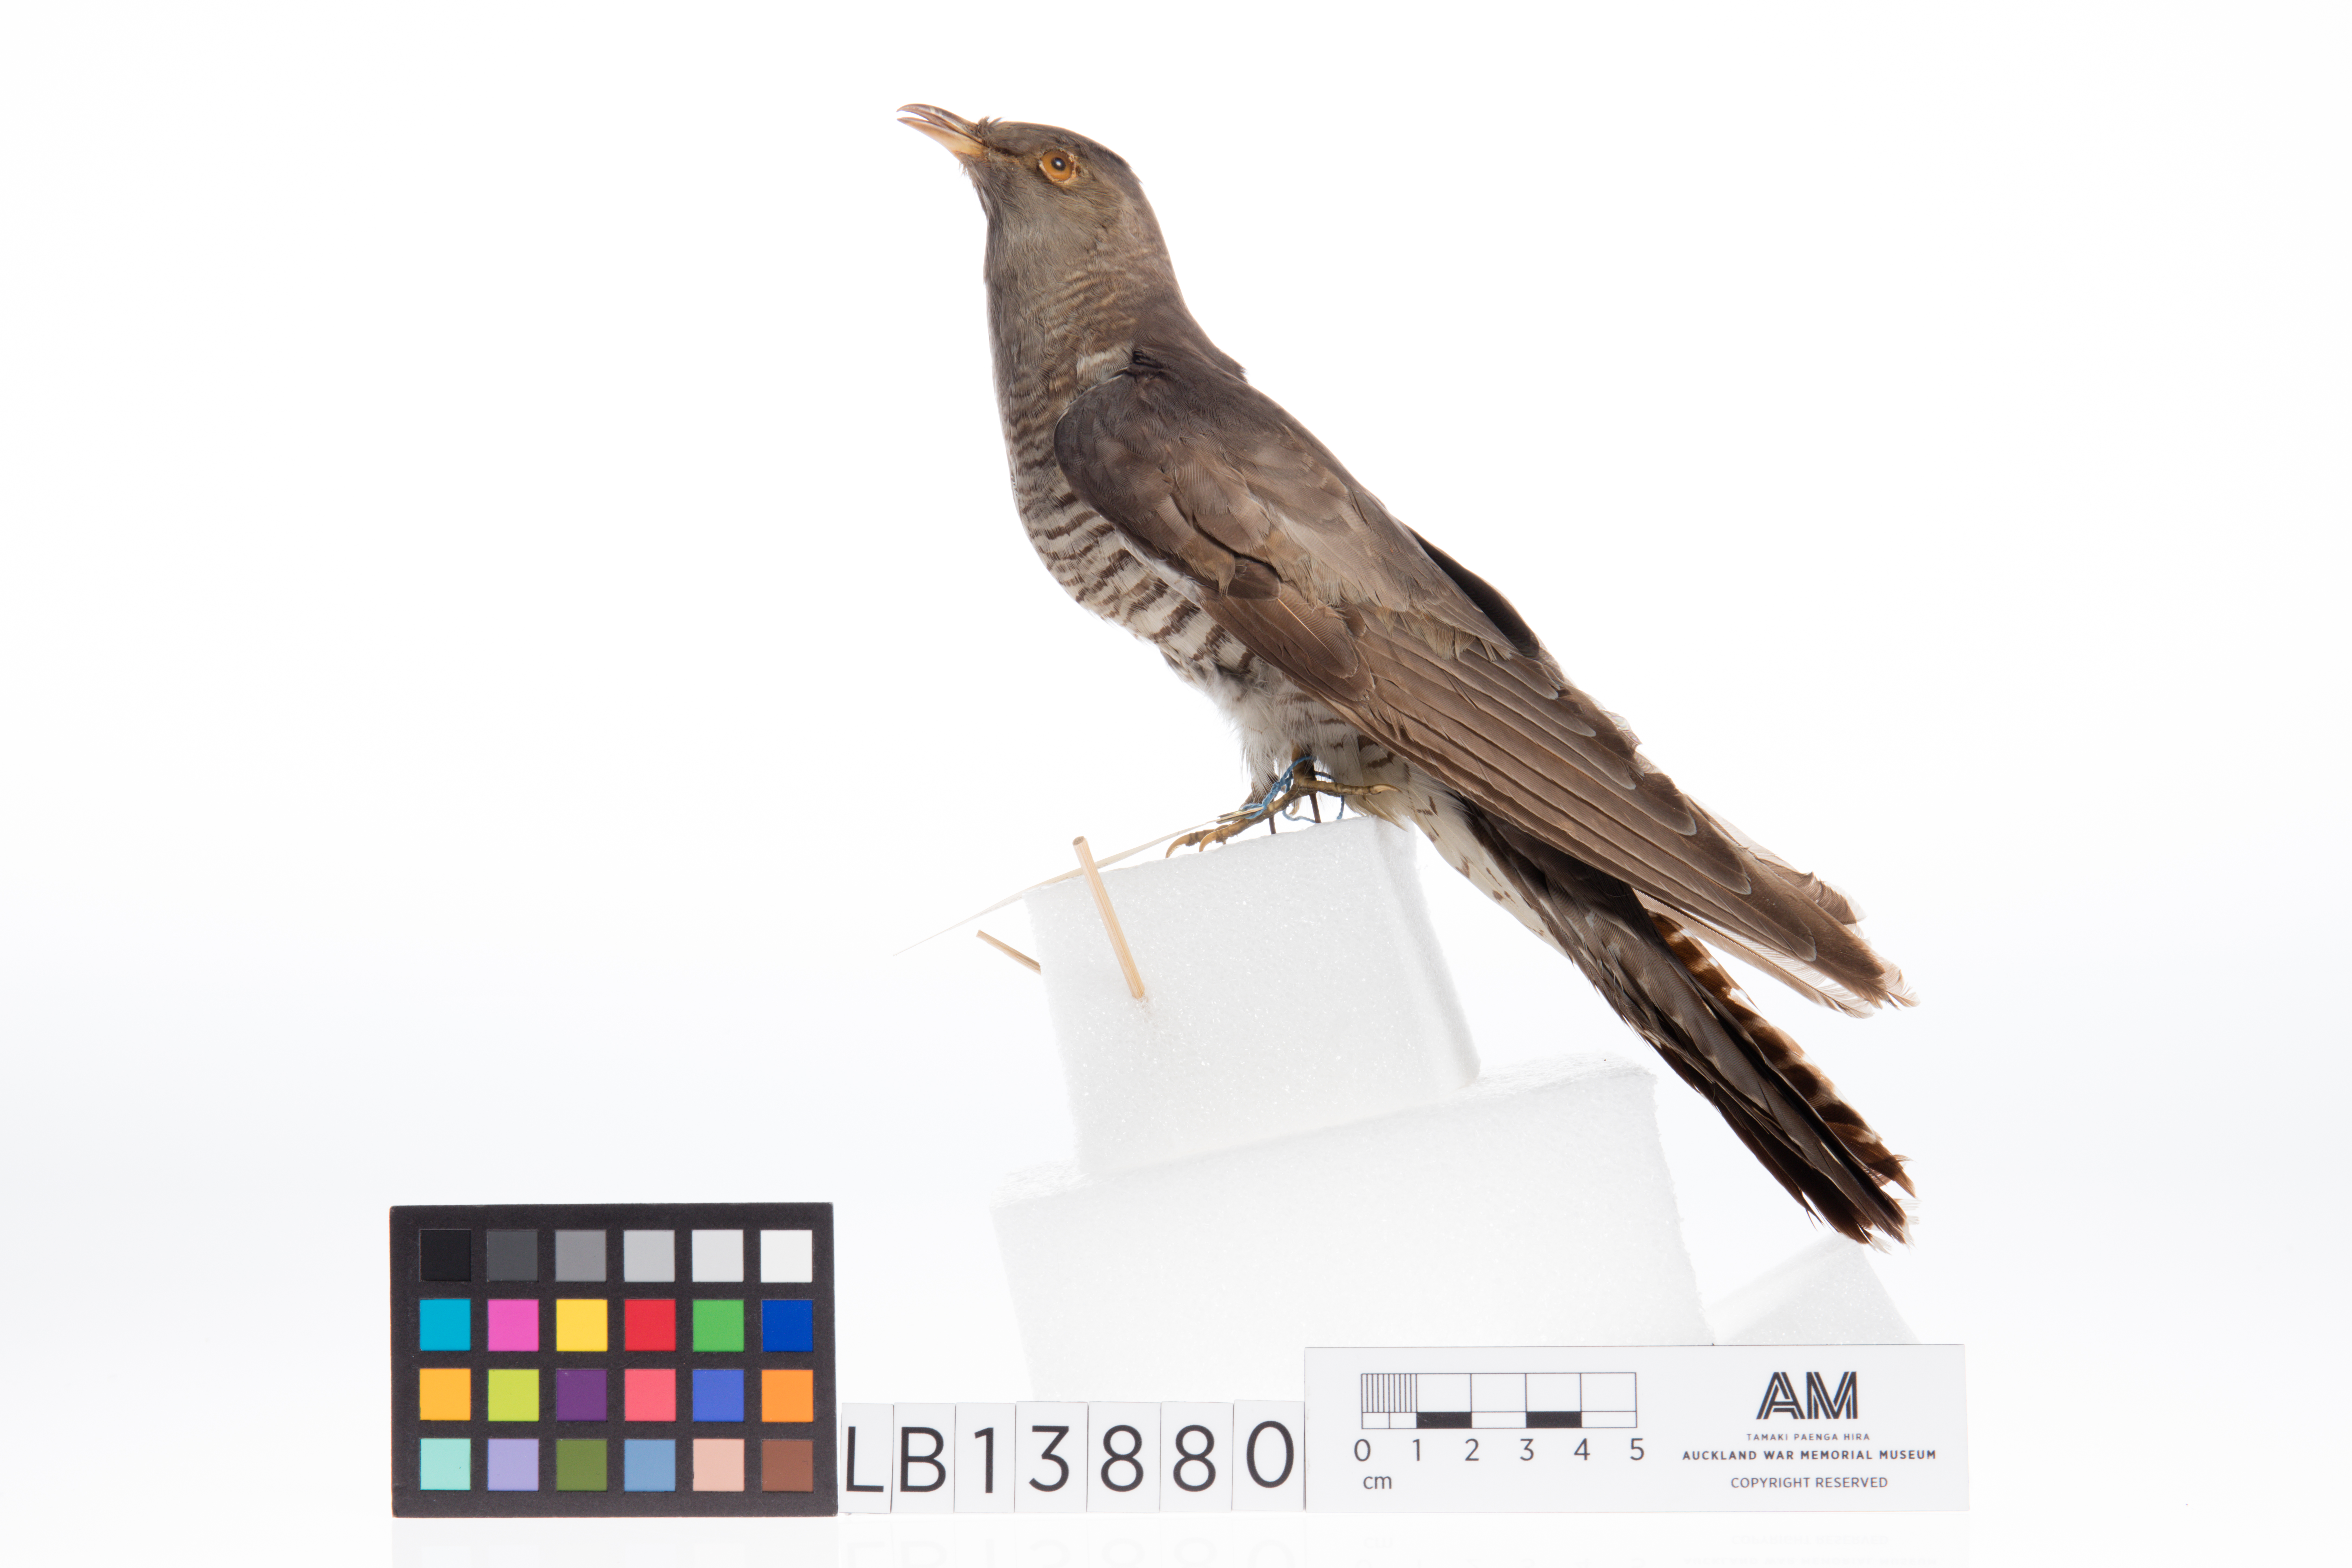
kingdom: Animalia
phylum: Chordata
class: Aves
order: Cuculiformes
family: Cuculidae
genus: Cuculus
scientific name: Cuculus canorus
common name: Common cuckoo
